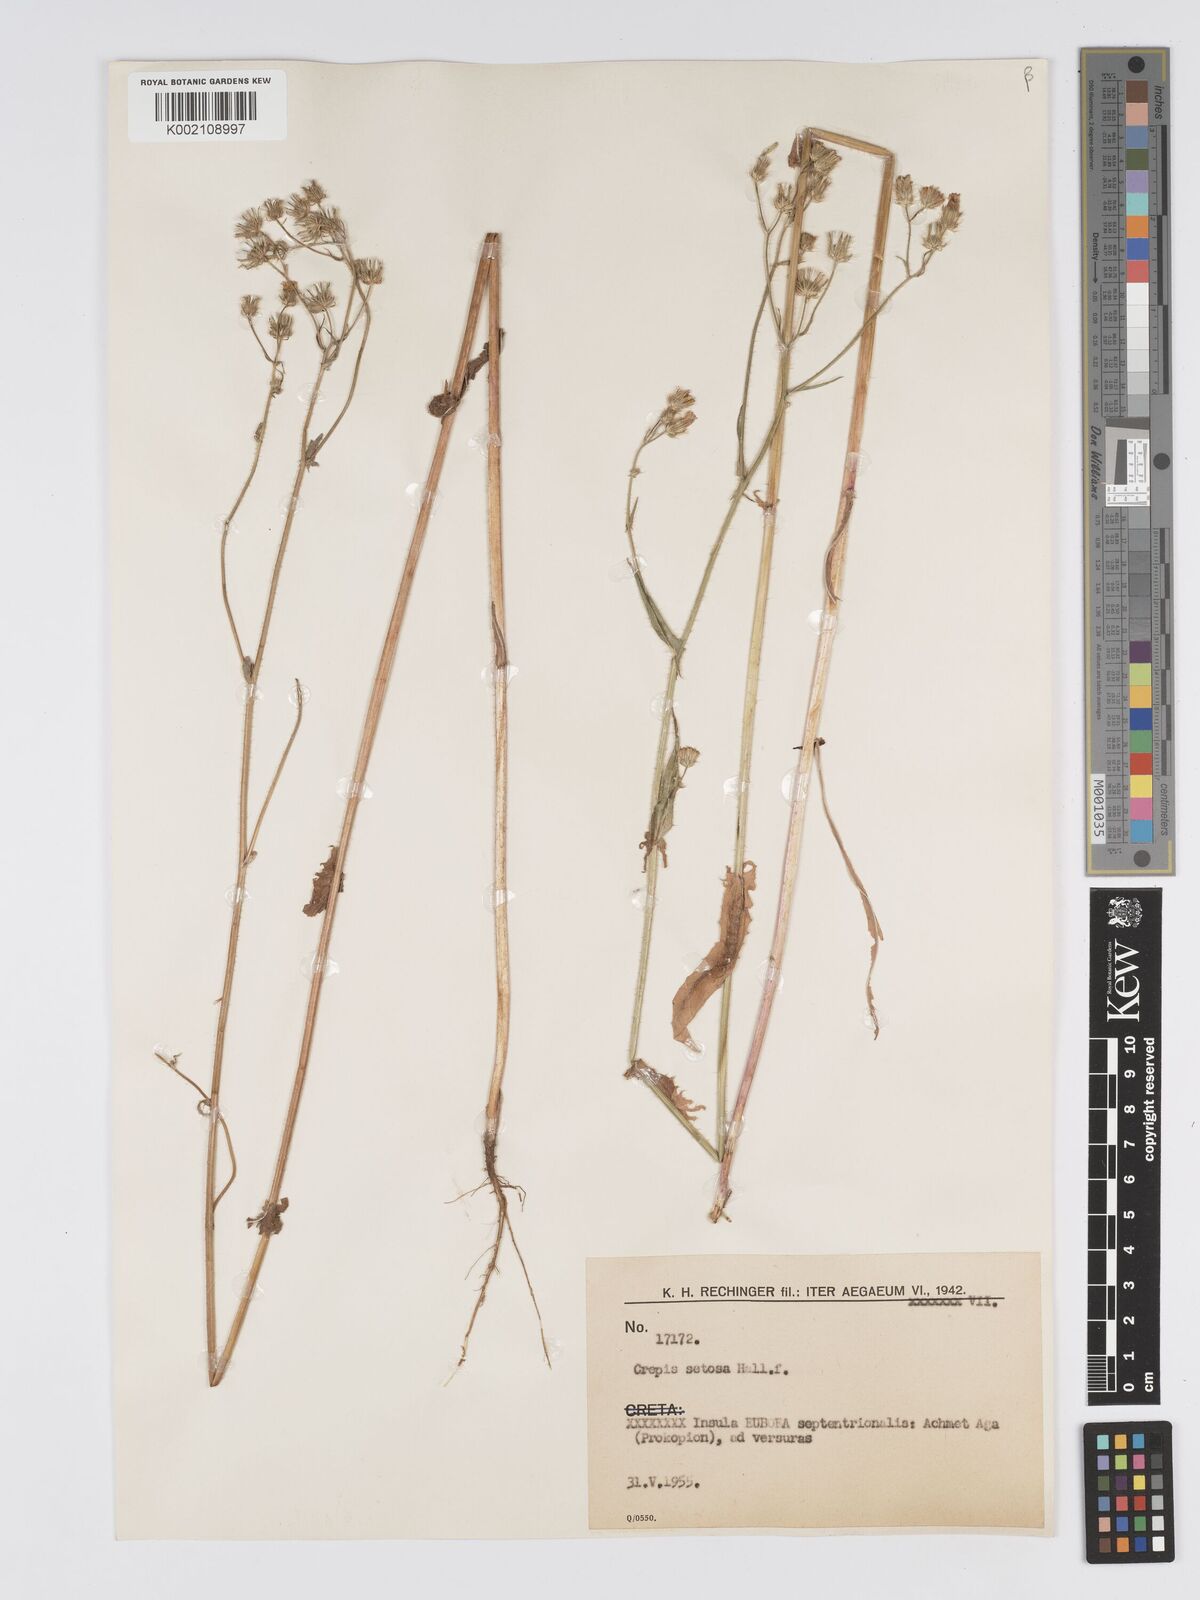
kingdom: Plantae
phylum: Tracheophyta
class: Magnoliopsida
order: Asterales
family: Asteraceae
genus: Crepis
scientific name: Crepis setosa
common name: Bristly hawk's-beard
